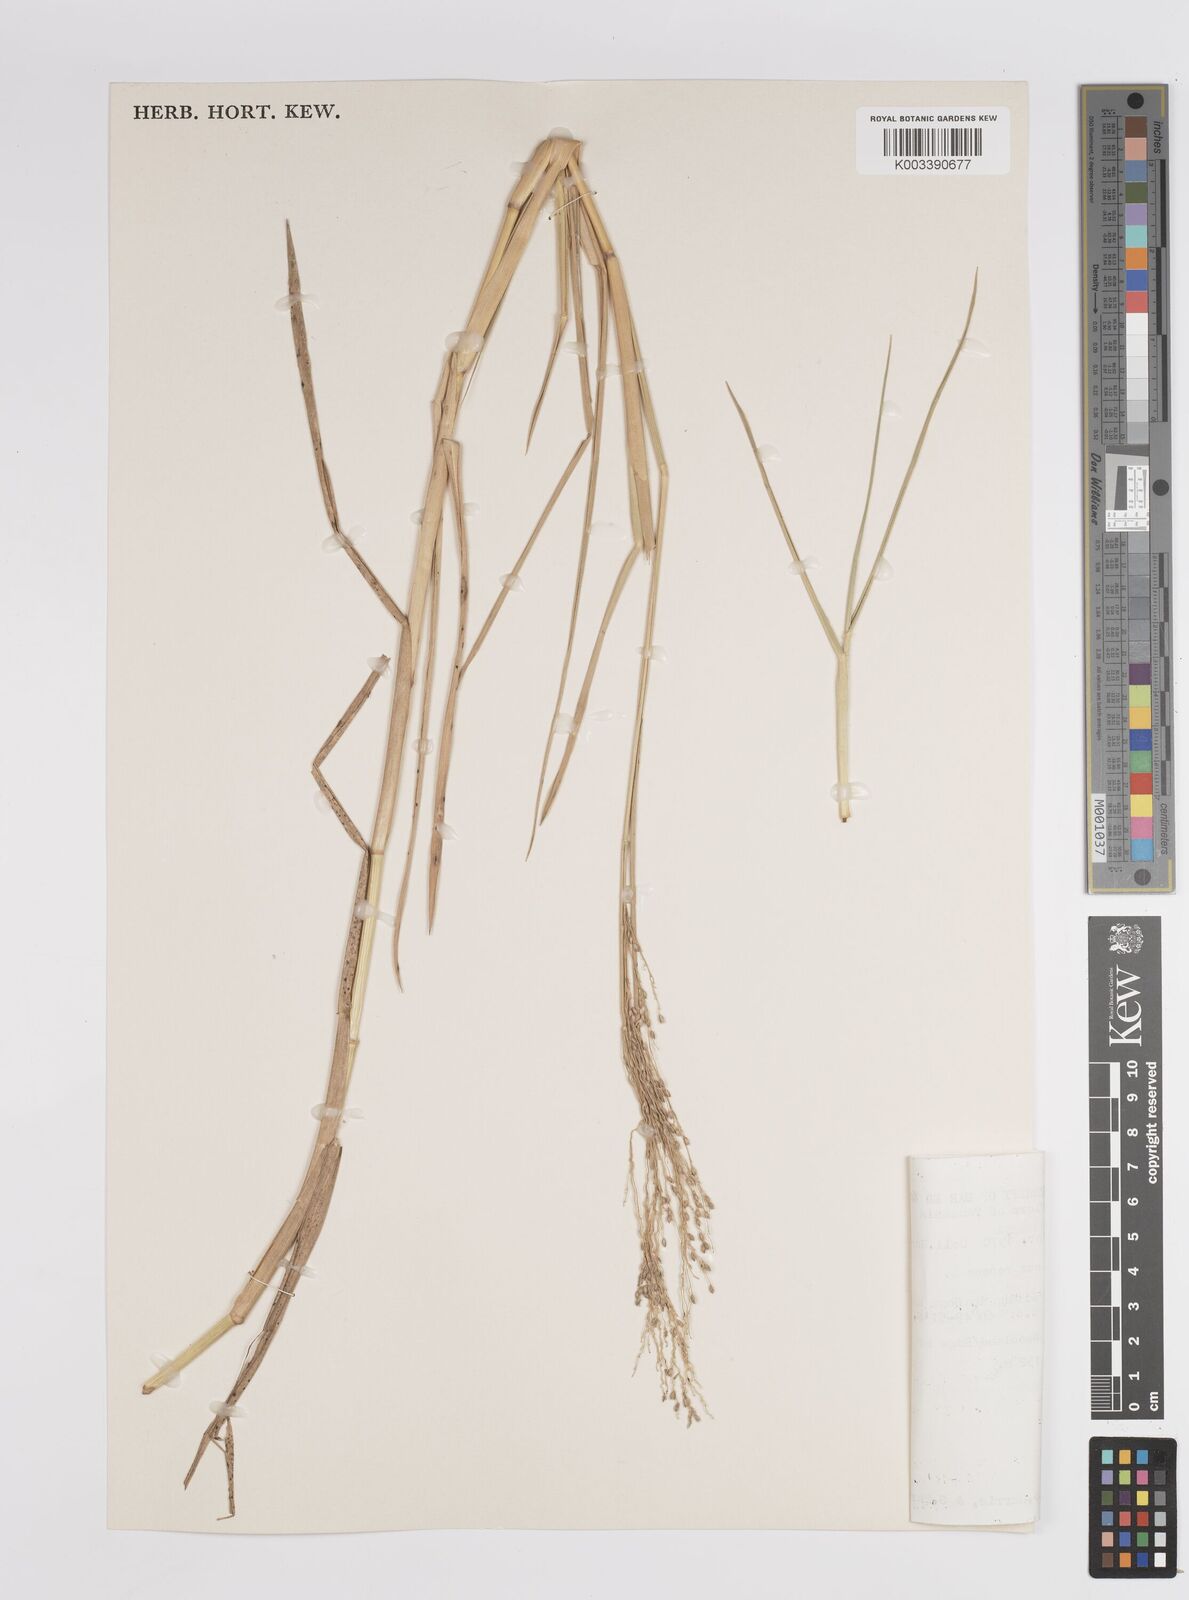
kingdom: Plantae
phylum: Tracheophyta
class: Liliopsida
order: Poales
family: Poaceae
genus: Panicum
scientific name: Panicum repens
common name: Torpedo grass
